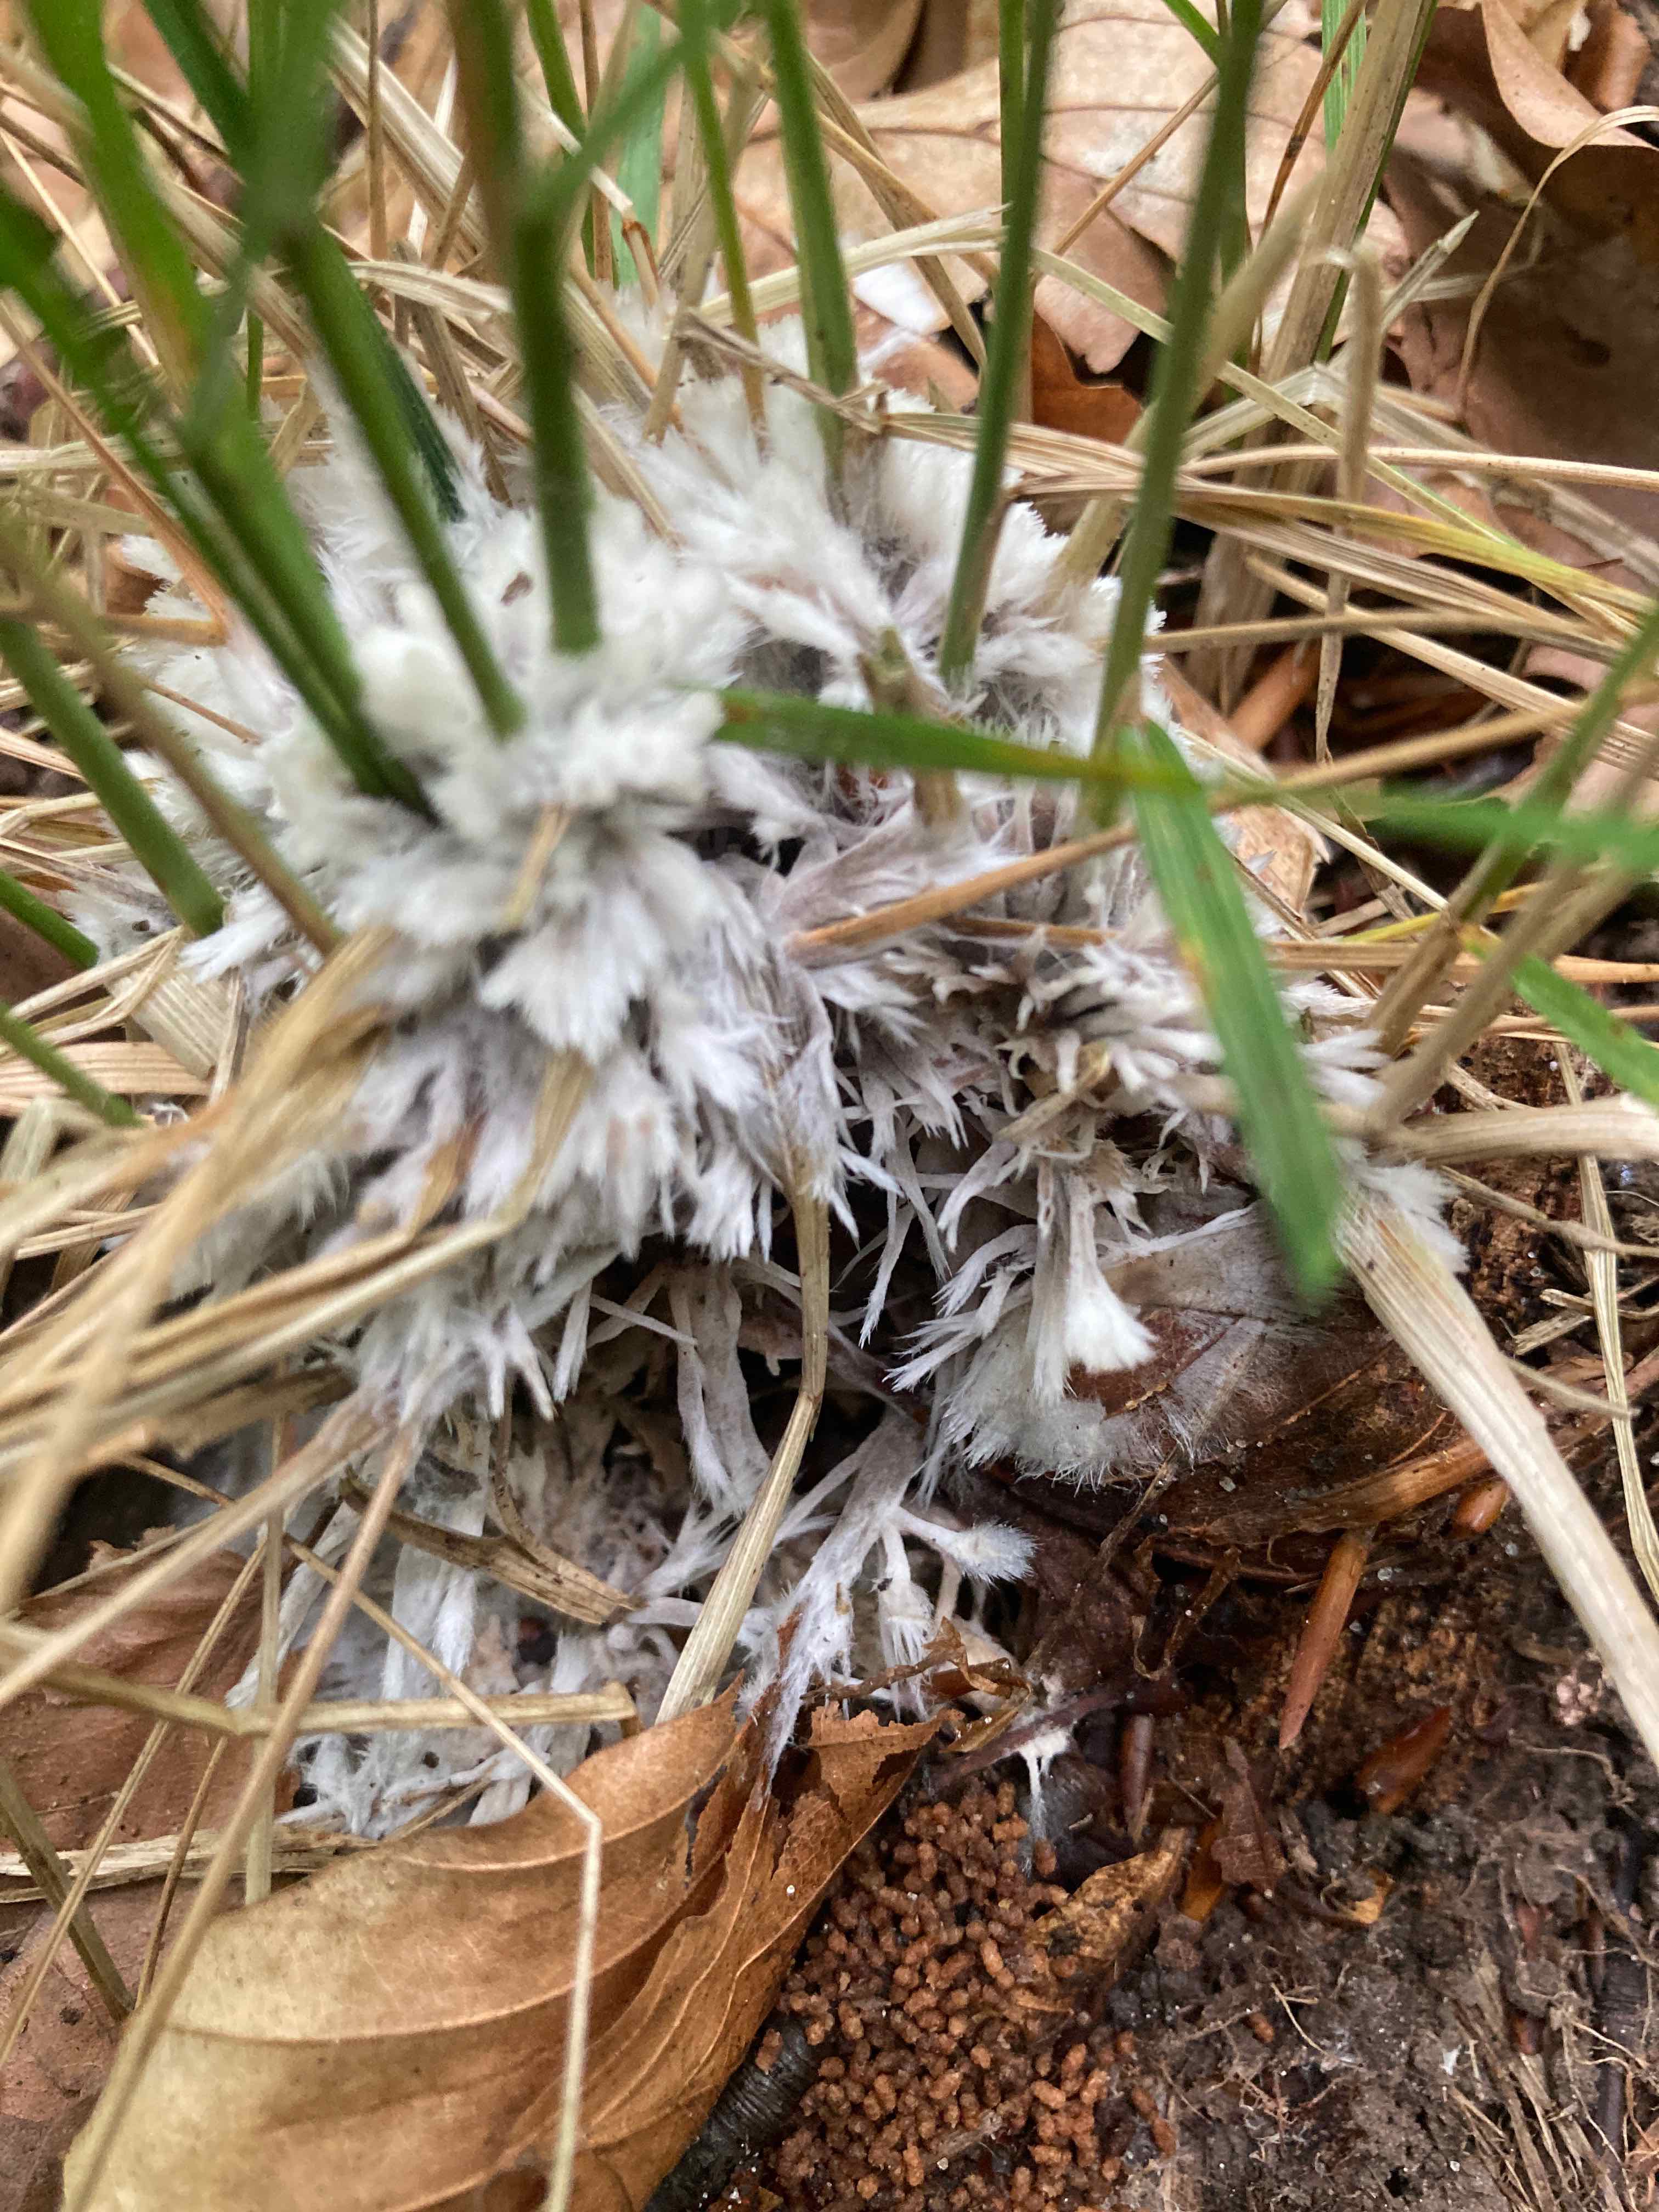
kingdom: Fungi
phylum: Basidiomycota
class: Agaricomycetes
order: Thelephorales
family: Thelephoraceae
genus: Thelephora
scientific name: Thelephora penicillata
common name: fladtrådt frynsesvamp
